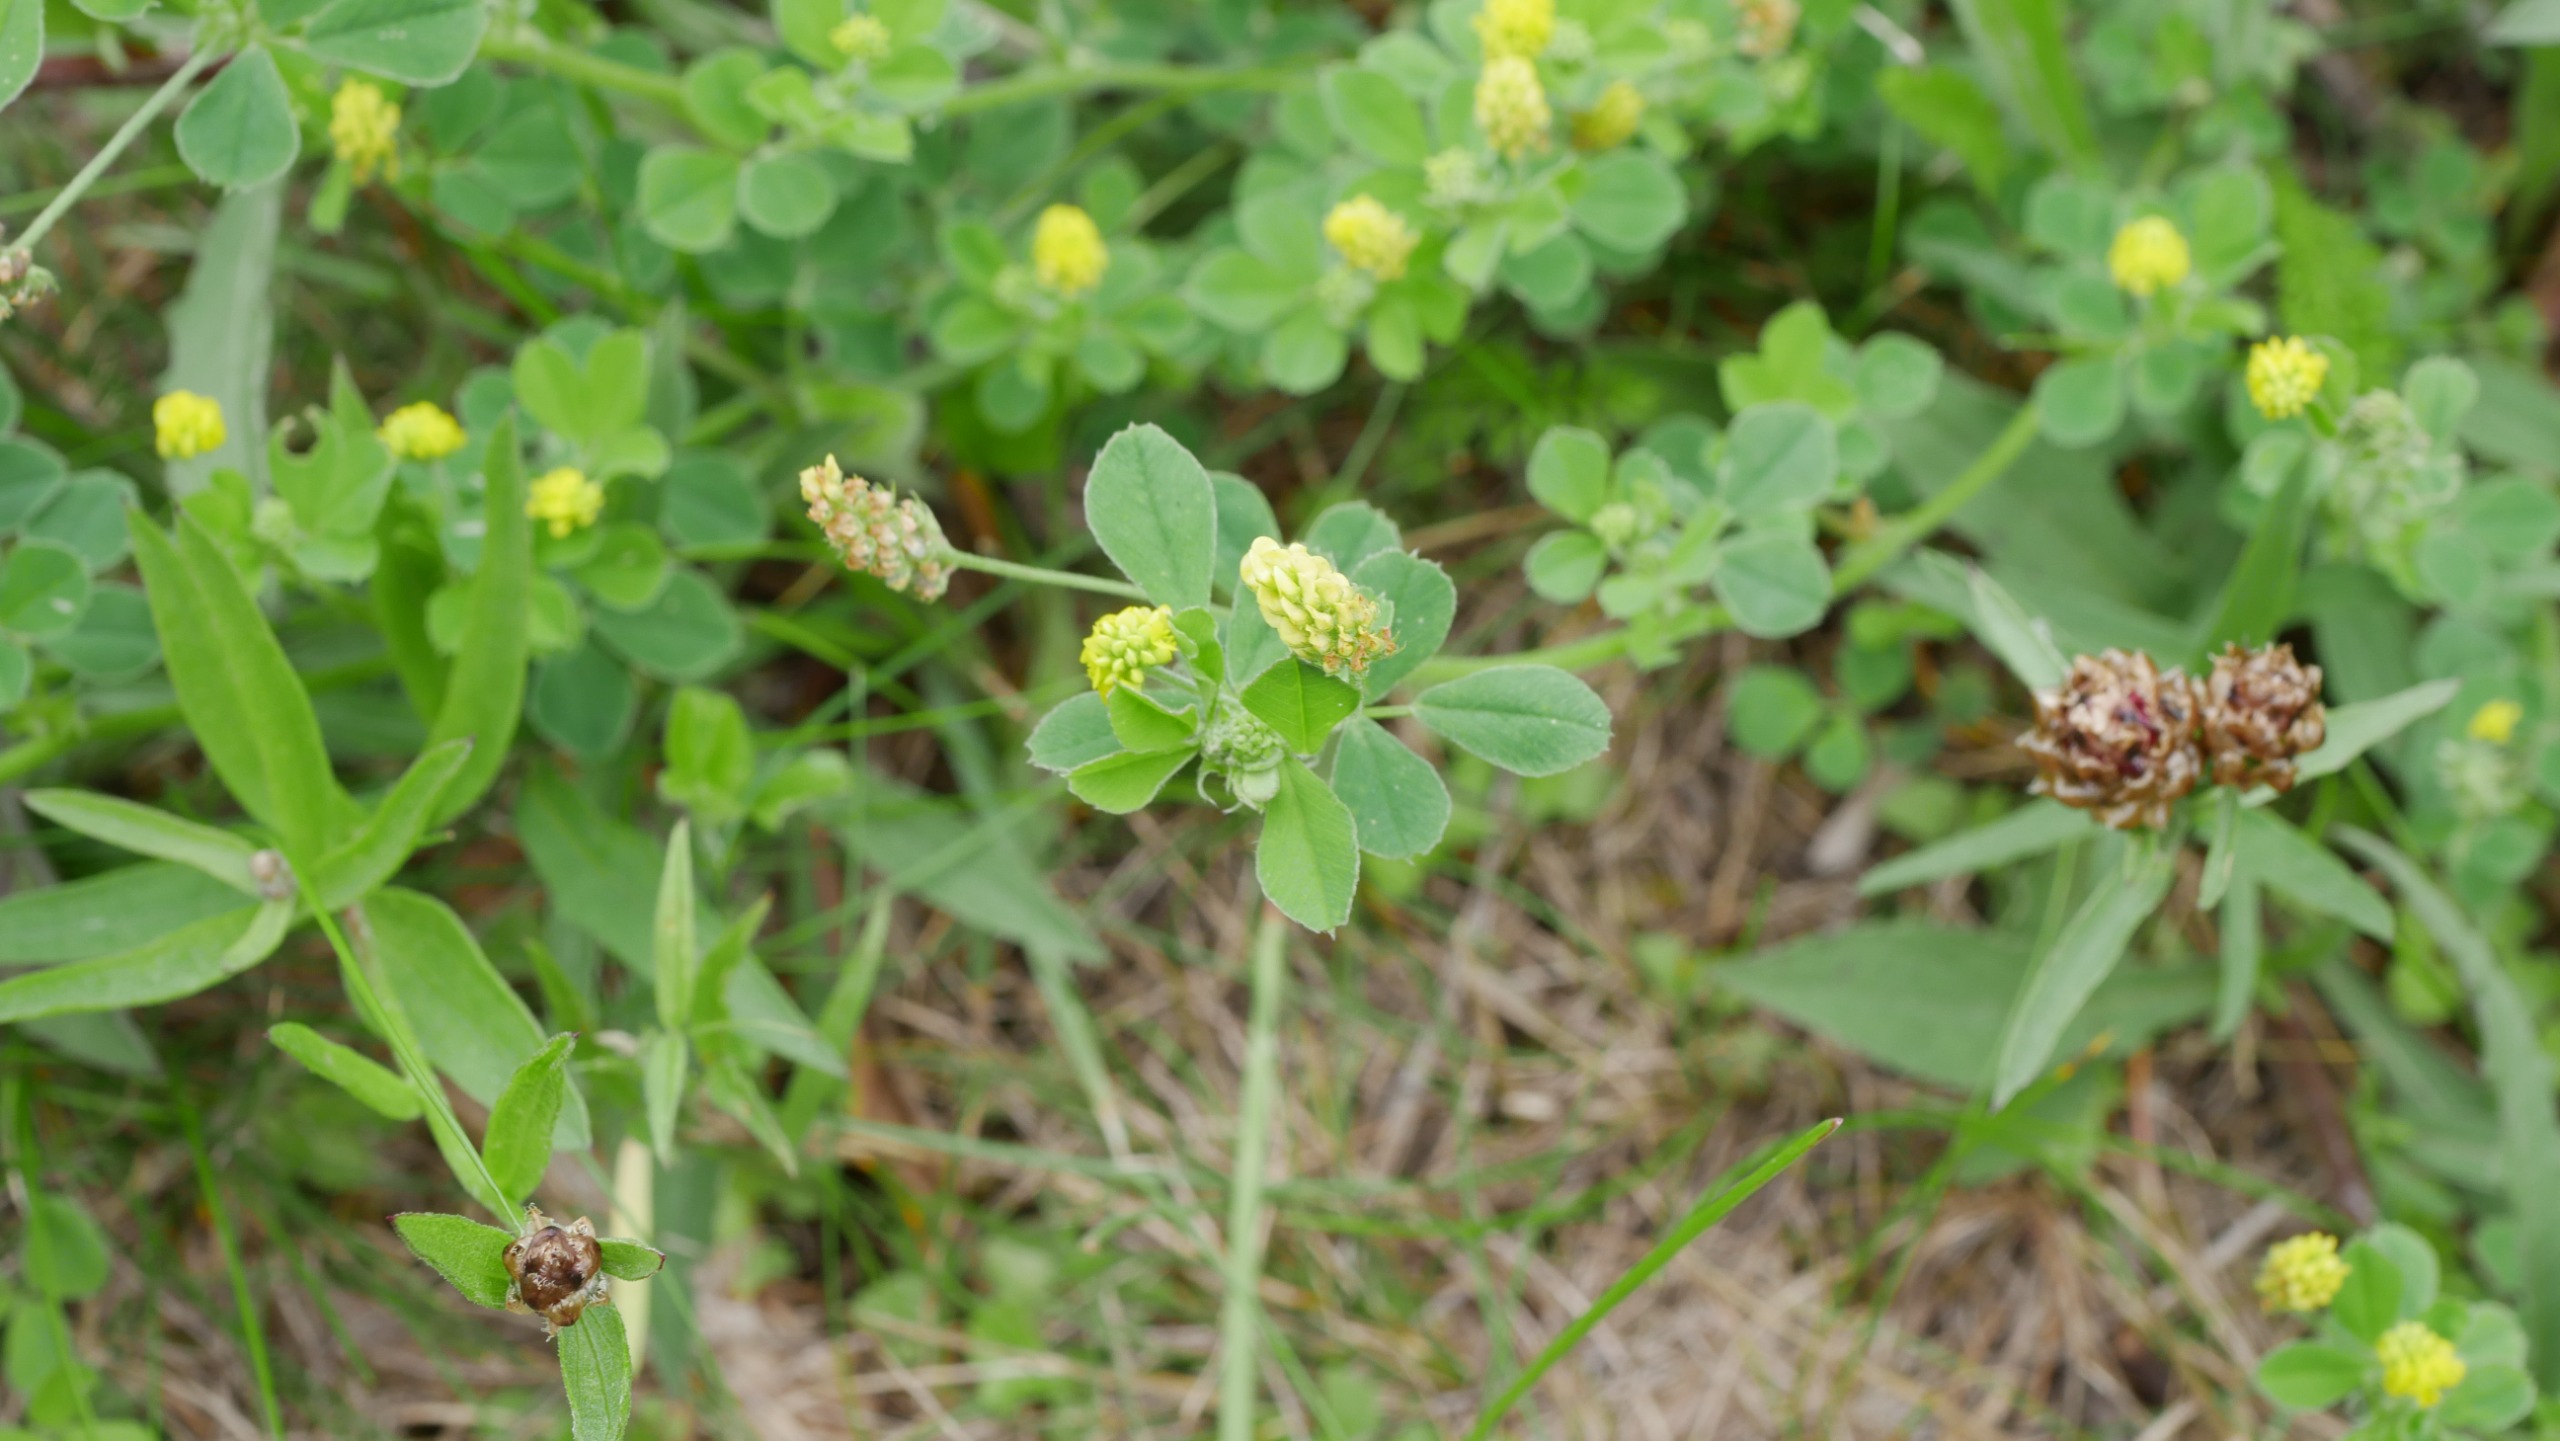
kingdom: Plantae
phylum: Tracheophyta
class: Magnoliopsida
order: Fabales
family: Fabaceae
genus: Medicago
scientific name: Medicago lupulina
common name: Humle-sneglebælg
